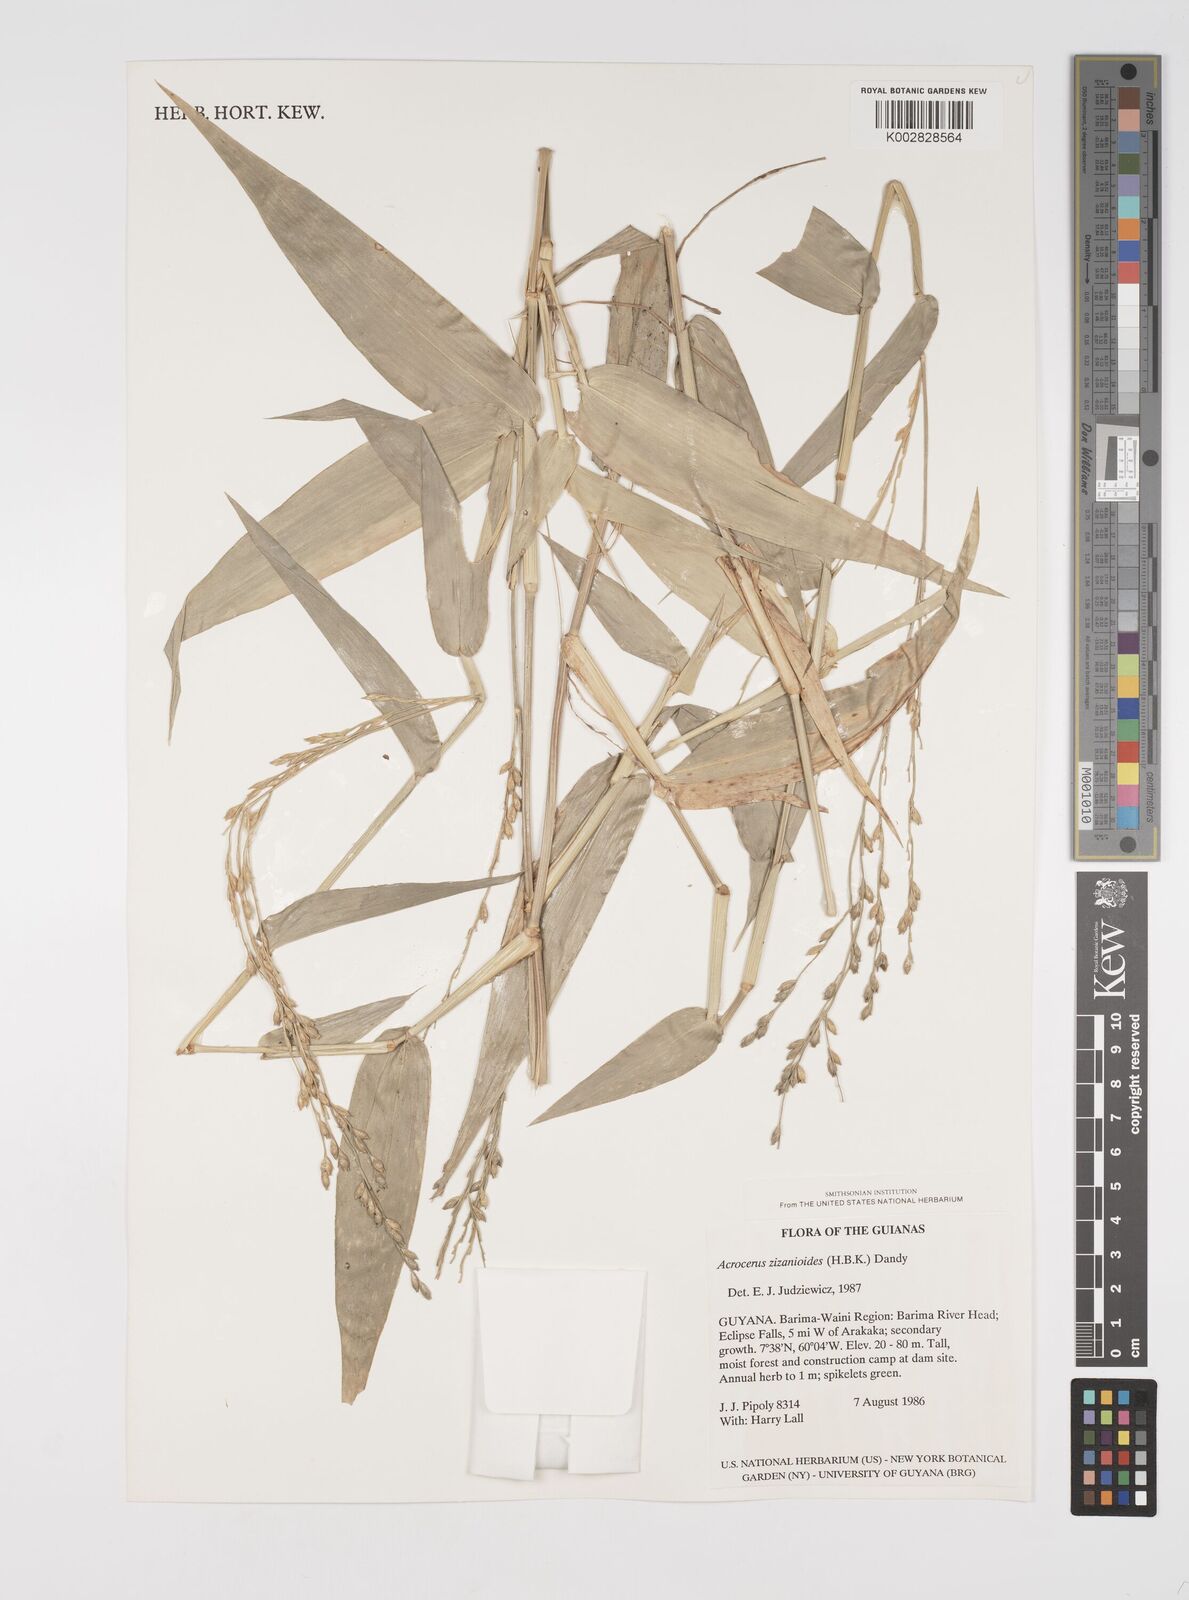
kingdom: Plantae
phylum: Tracheophyta
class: Liliopsida
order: Poales
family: Poaceae
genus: Acroceras
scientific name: Acroceras zizanioides
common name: Oat grass
